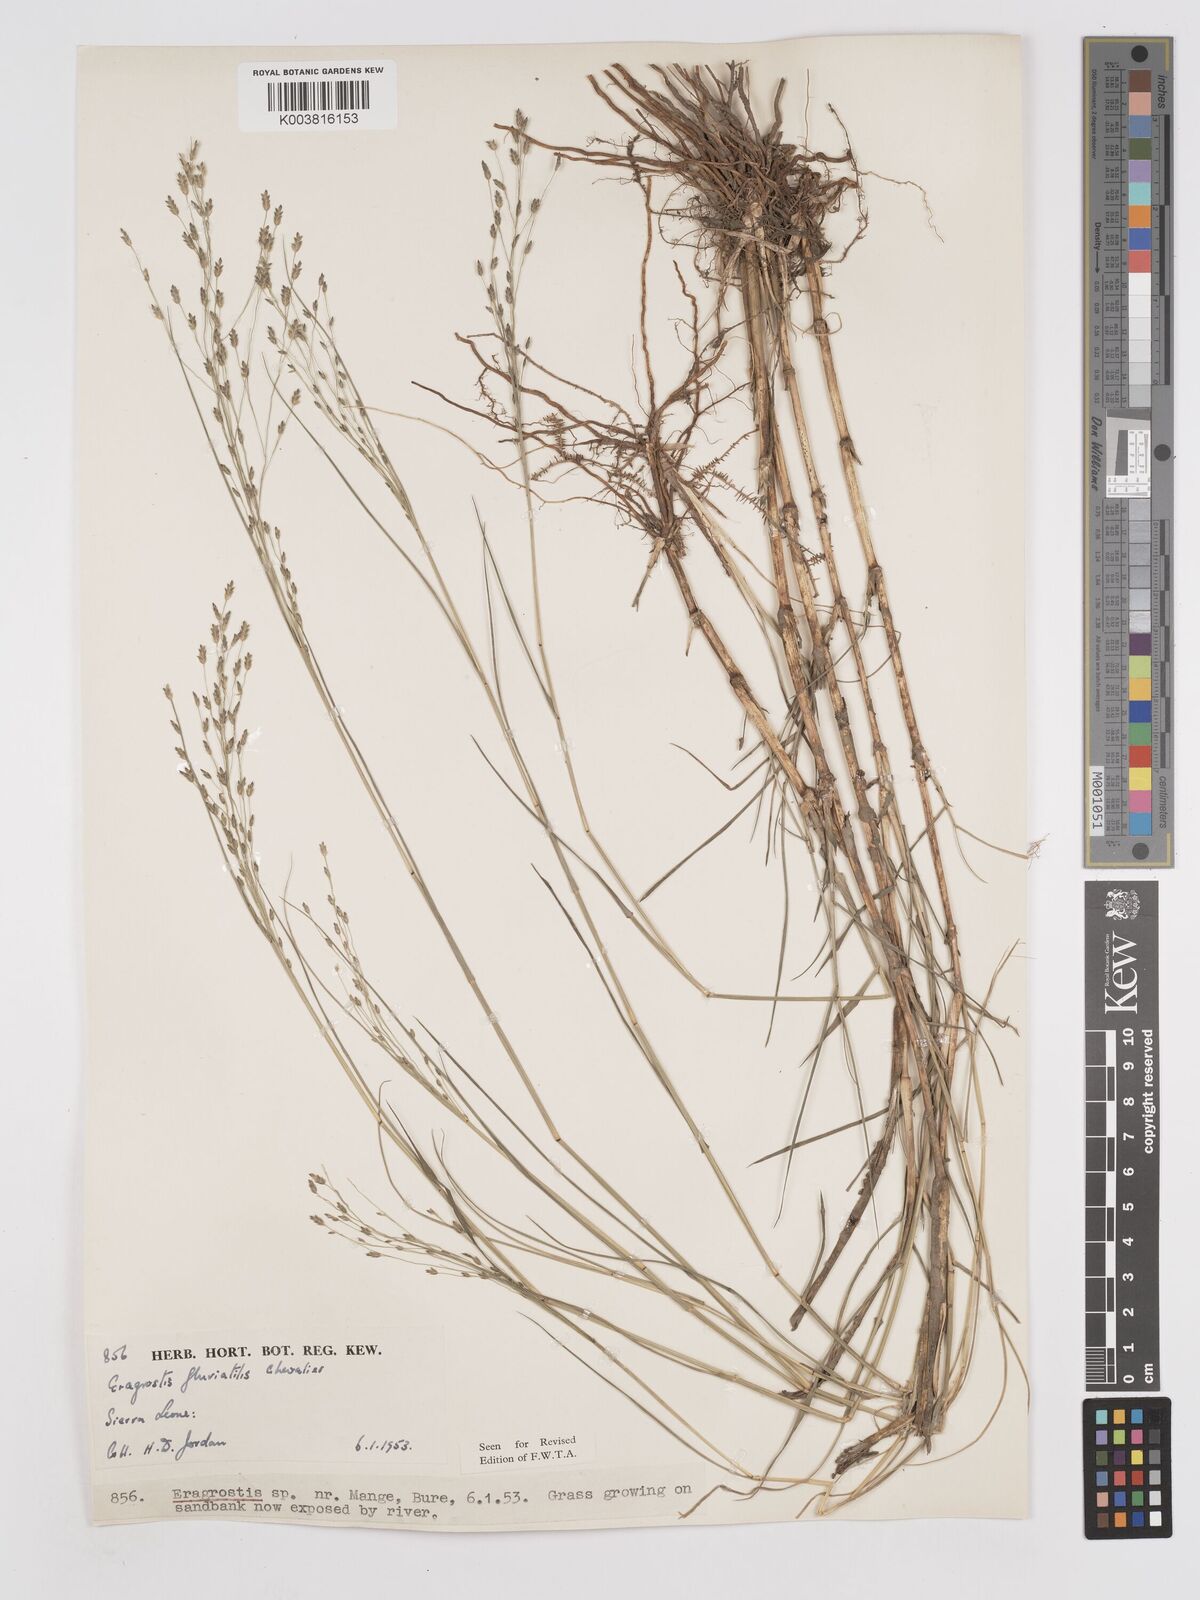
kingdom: Plantae
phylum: Tracheophyta
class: Liliopsida
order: Poales
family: Poaceae
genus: Eragrostis
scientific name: Eragrostis barteri
